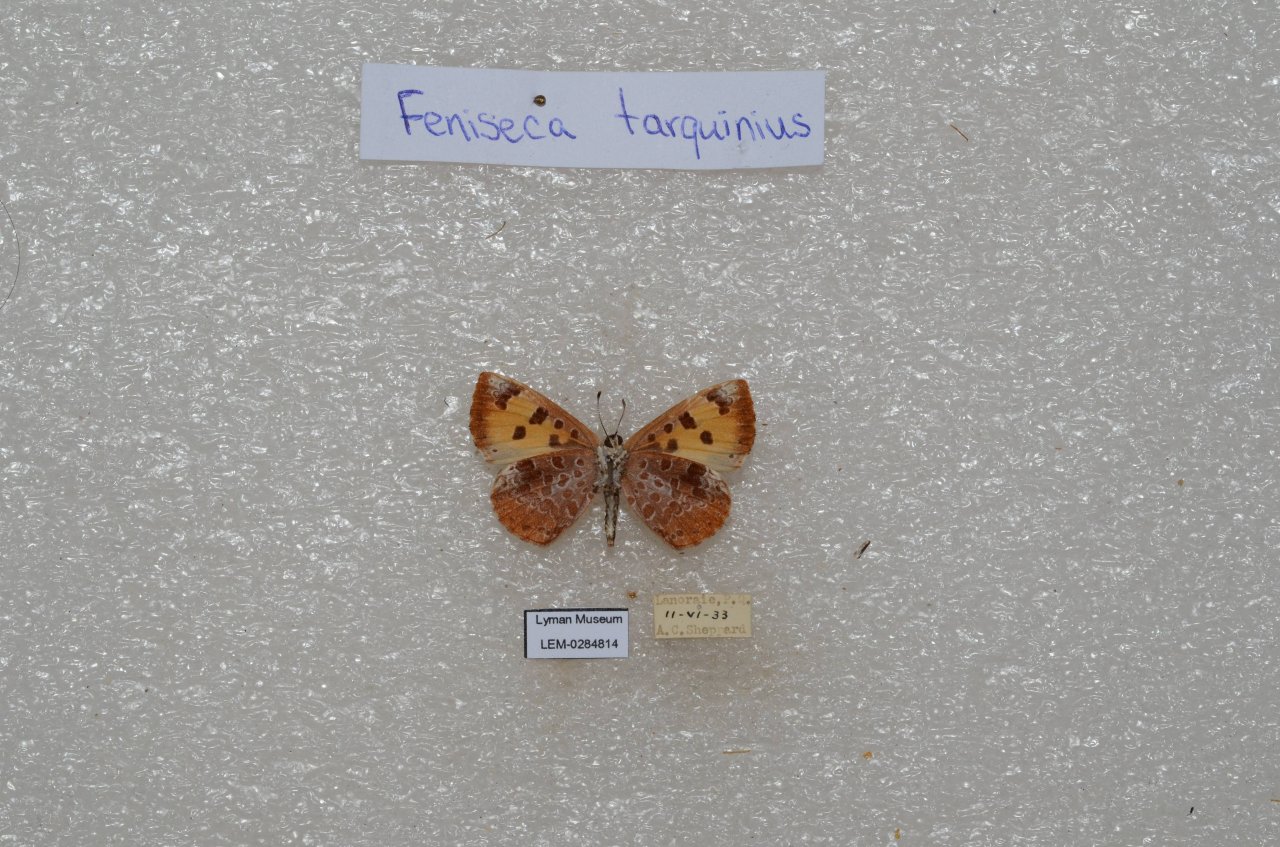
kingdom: Animalia
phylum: Arthropoda
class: Insecta
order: Lepidoptera
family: Lycaenidae
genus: Feniseca
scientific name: Feniseca tarquinius
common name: Harvester
